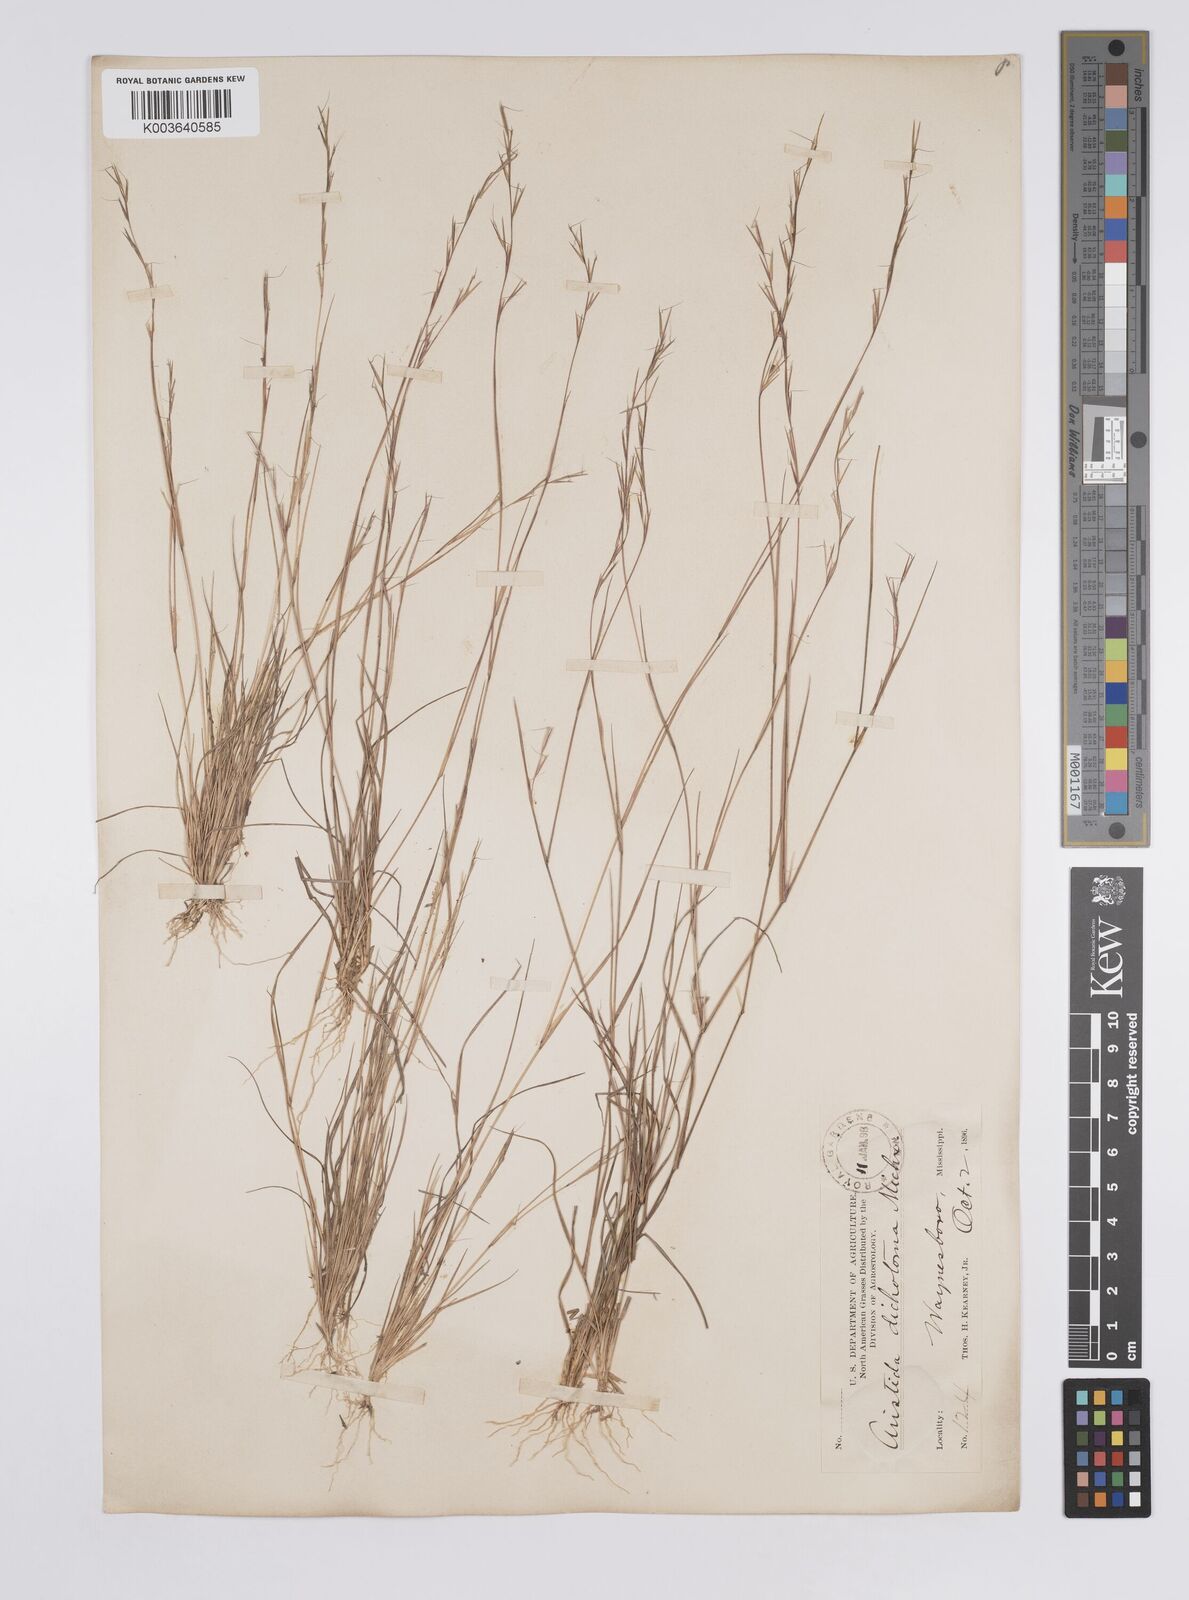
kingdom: Plantae
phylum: Tracheophyta
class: Liliopsida
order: Poales
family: Poaceae
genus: Aristida
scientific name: Aristida dichotoma
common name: Churchmouse three-awn
